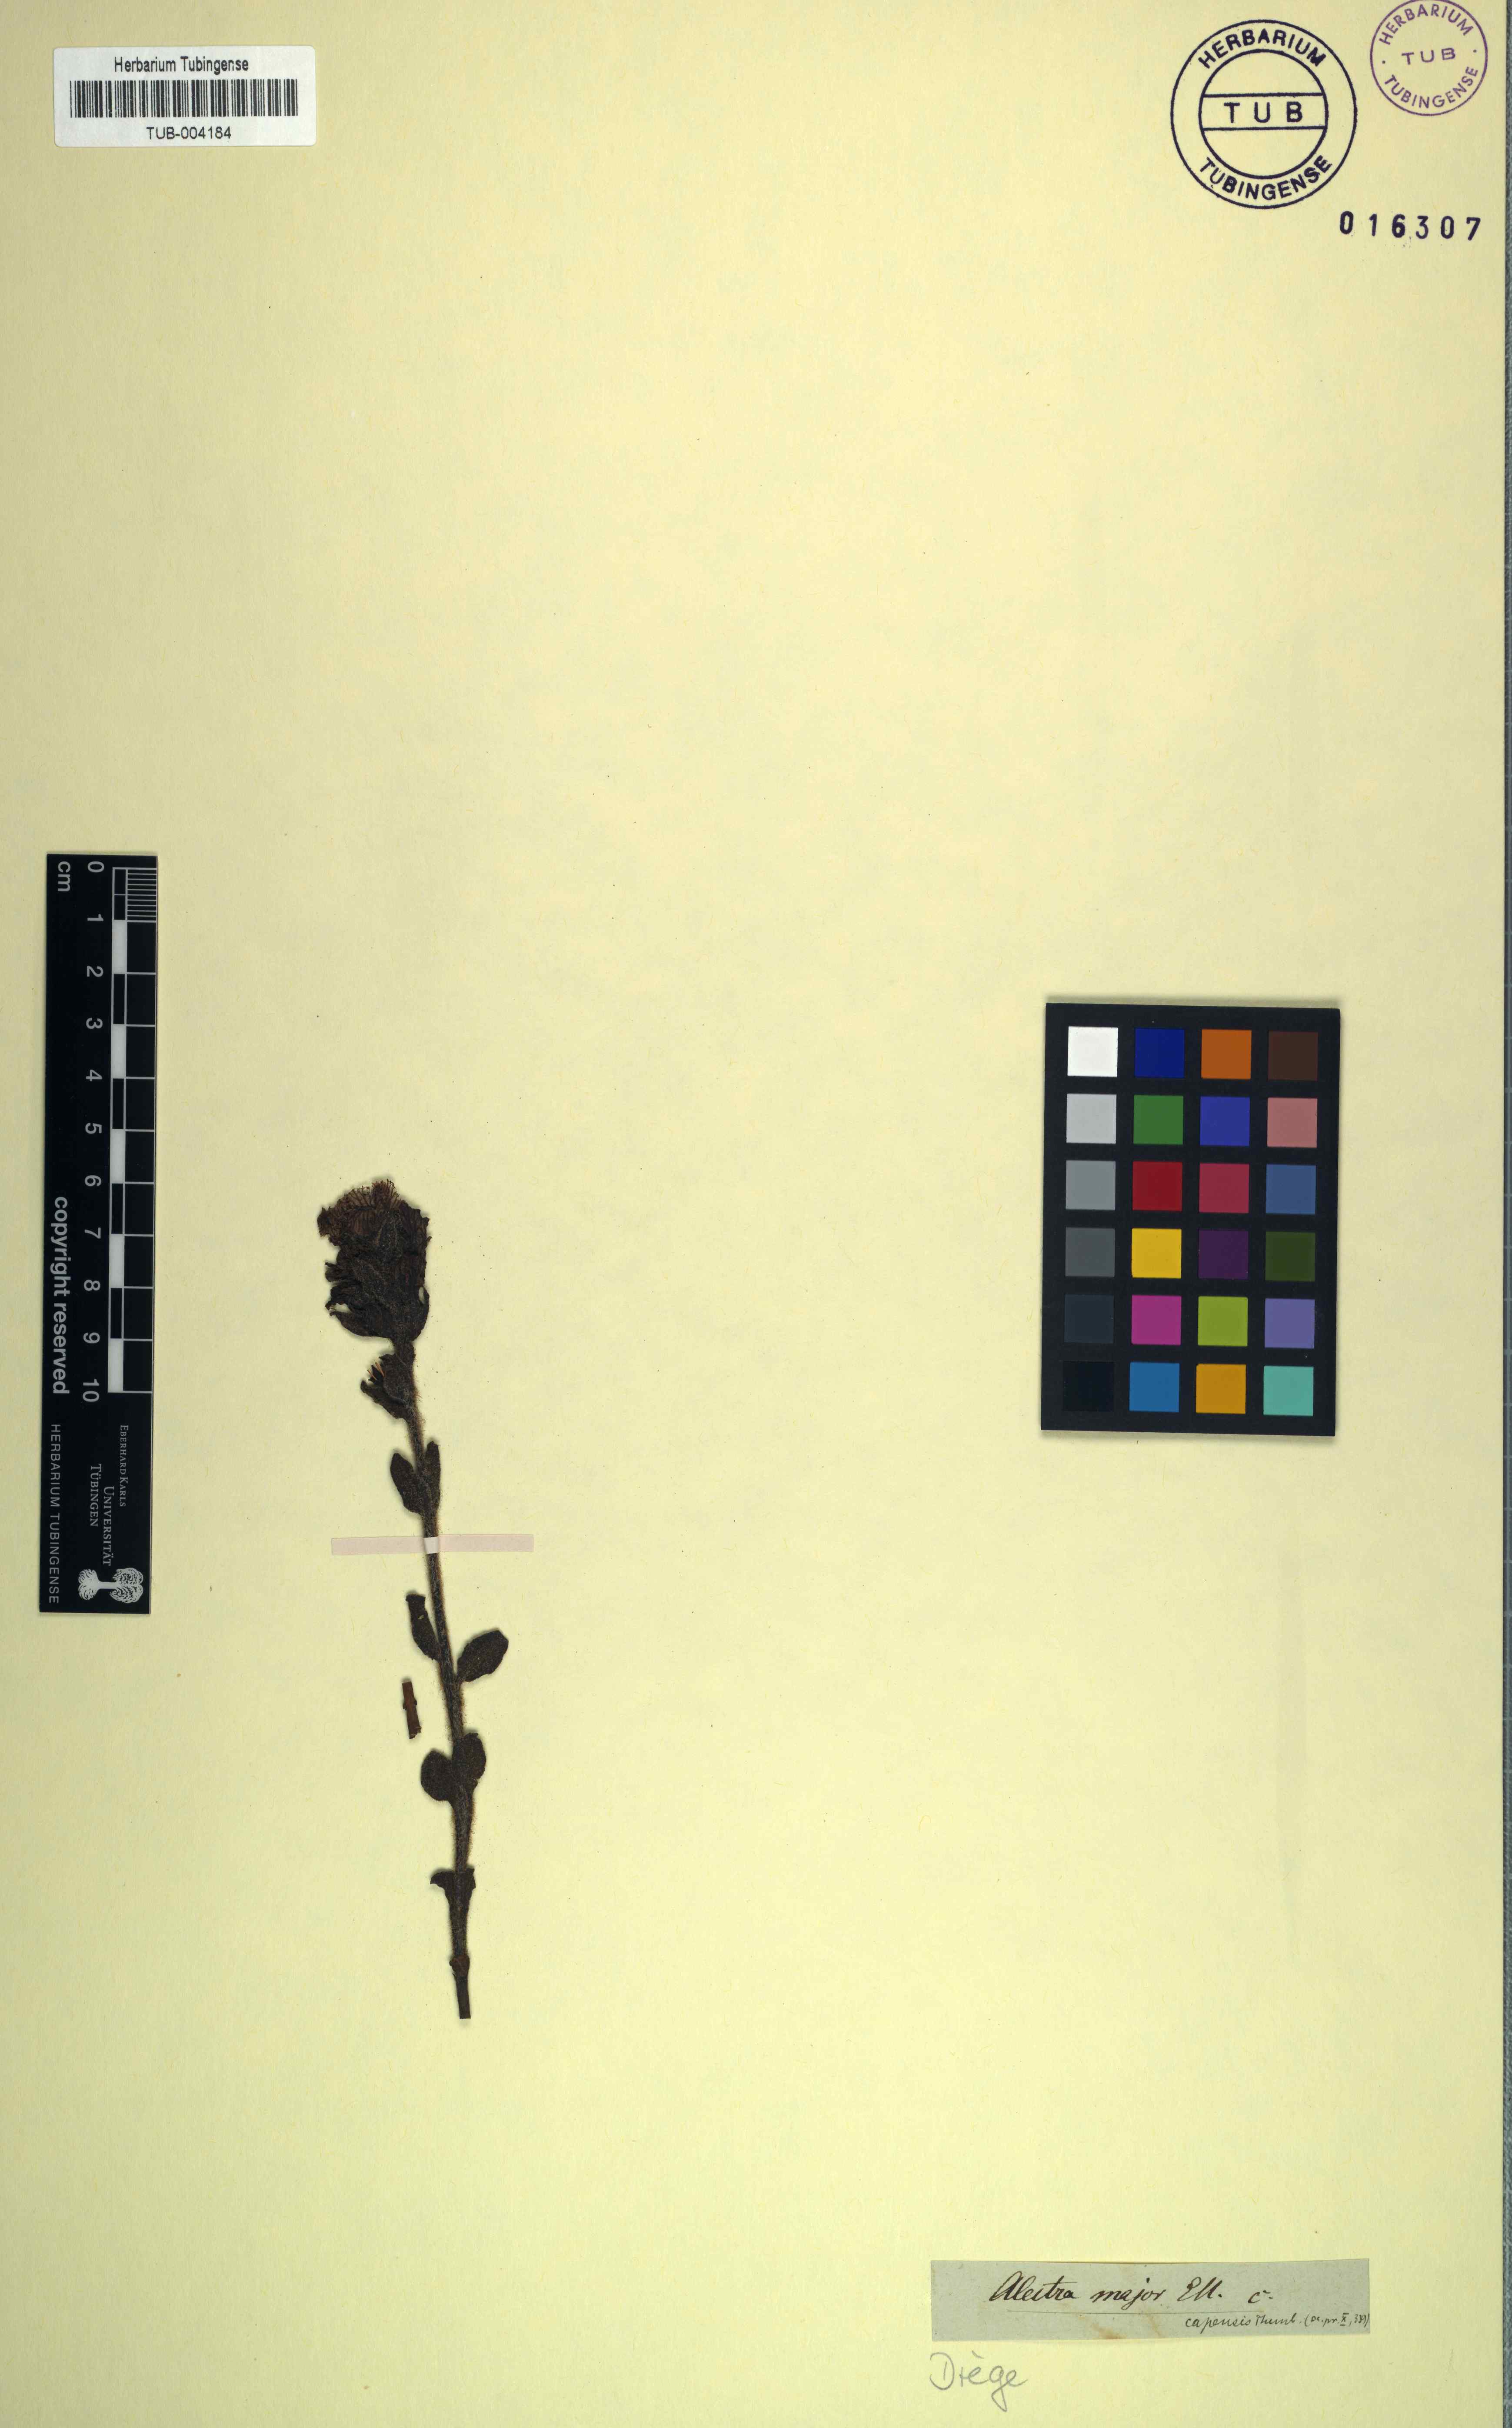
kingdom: Plantae
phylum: Tracheophyta
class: Magnoliopsida
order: Lamiales
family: Orobanchaceae
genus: Alectra
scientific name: Alectra capensis
